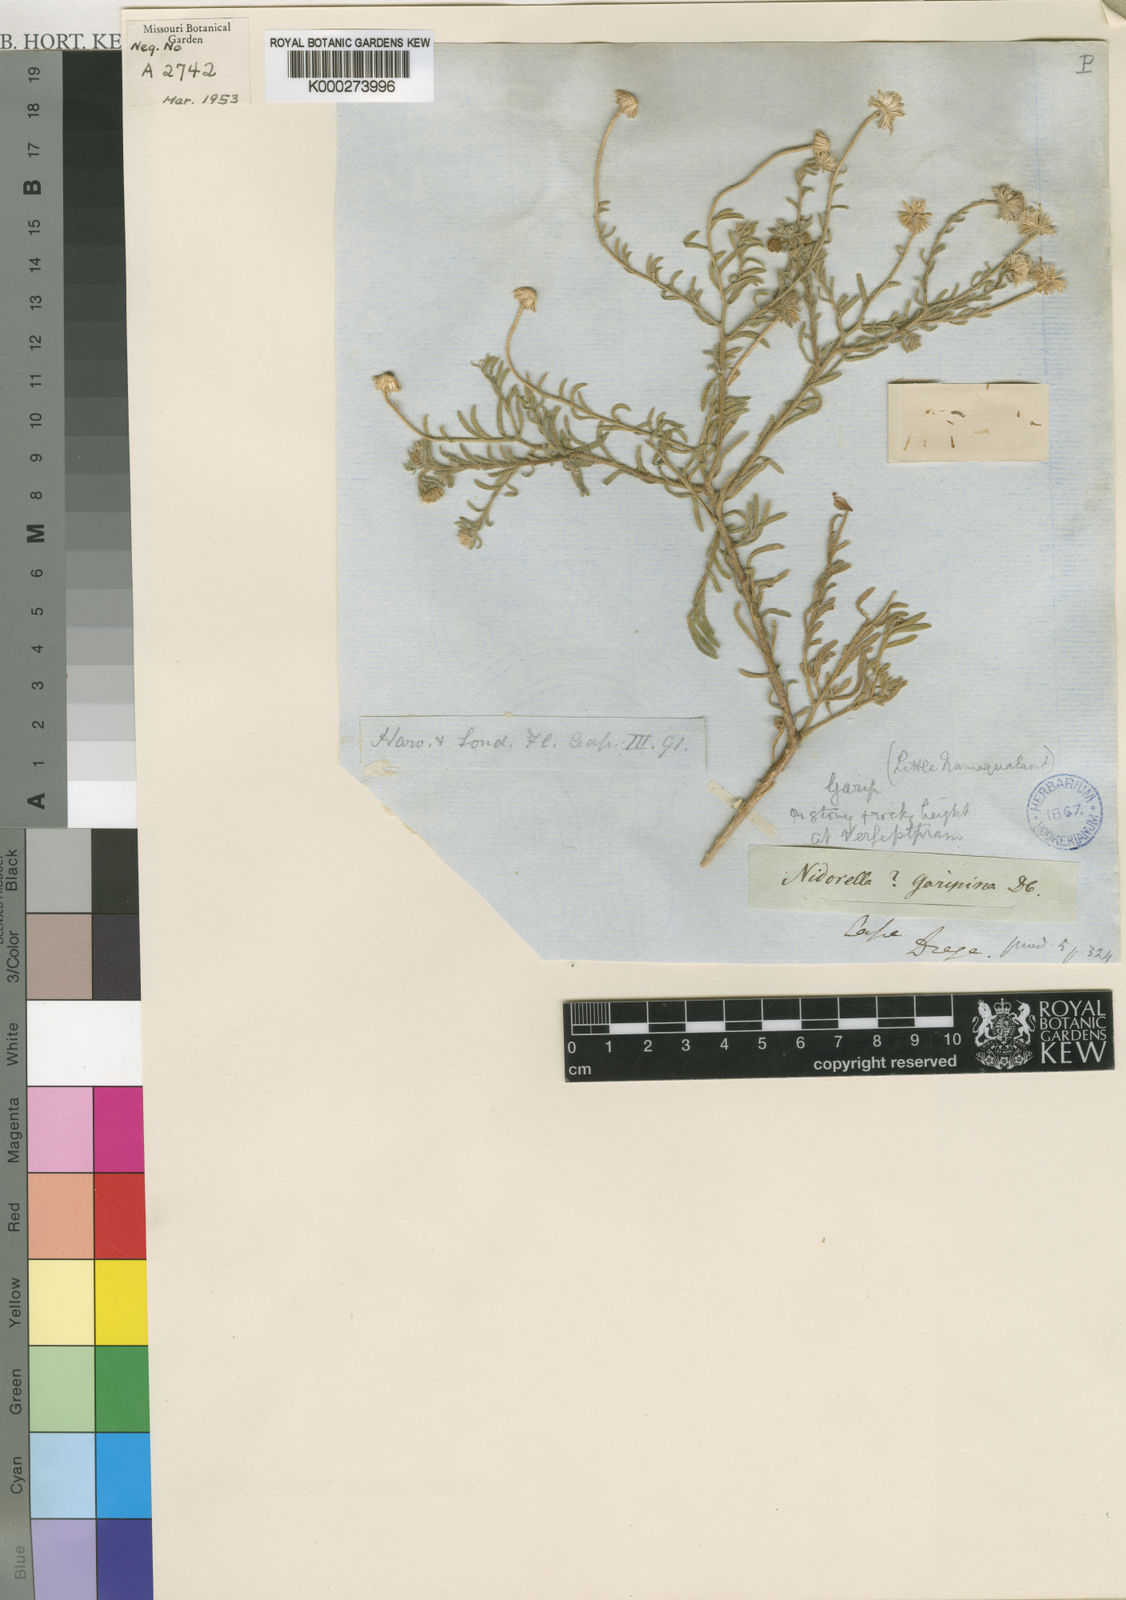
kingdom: Plantae
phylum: Tracheophyta
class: Magnoliopsida
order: Asterales
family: Asteraceae
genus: Nolletia
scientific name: Nolletia gariepina
